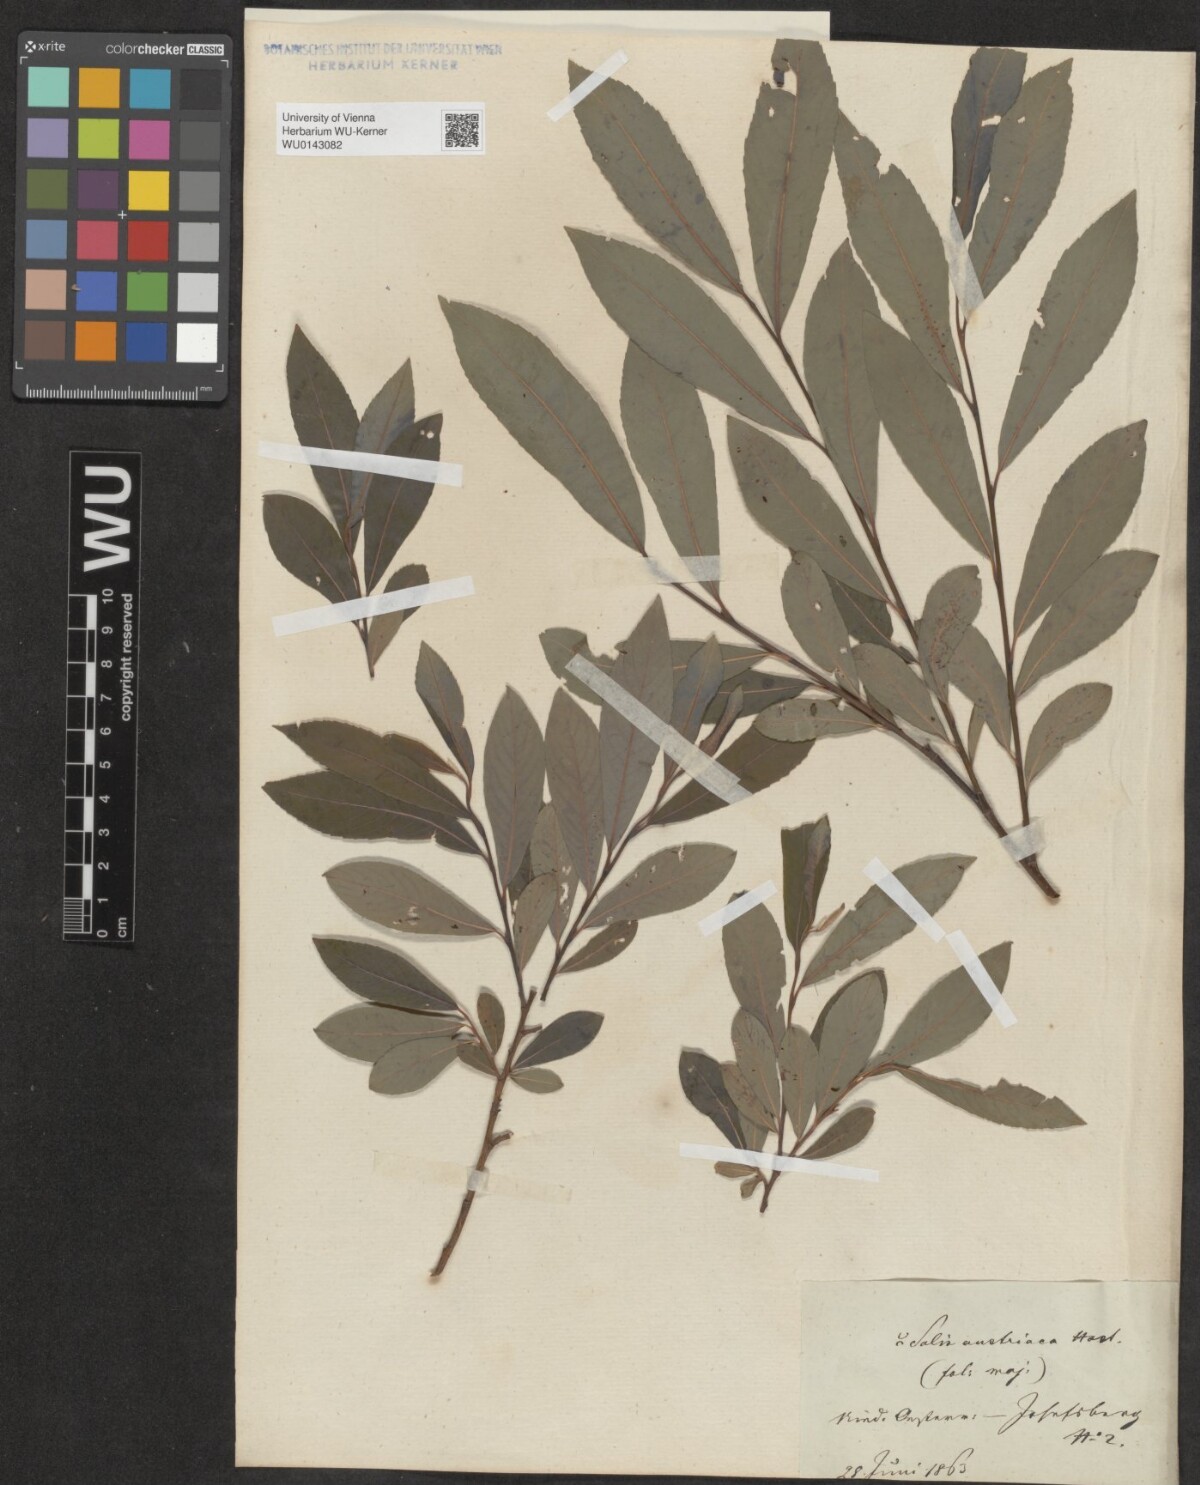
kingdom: Plantae
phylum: Tracheophyta
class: Magnoliopsida
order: Malpighiales
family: Salicaceae
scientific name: Salicaceae
